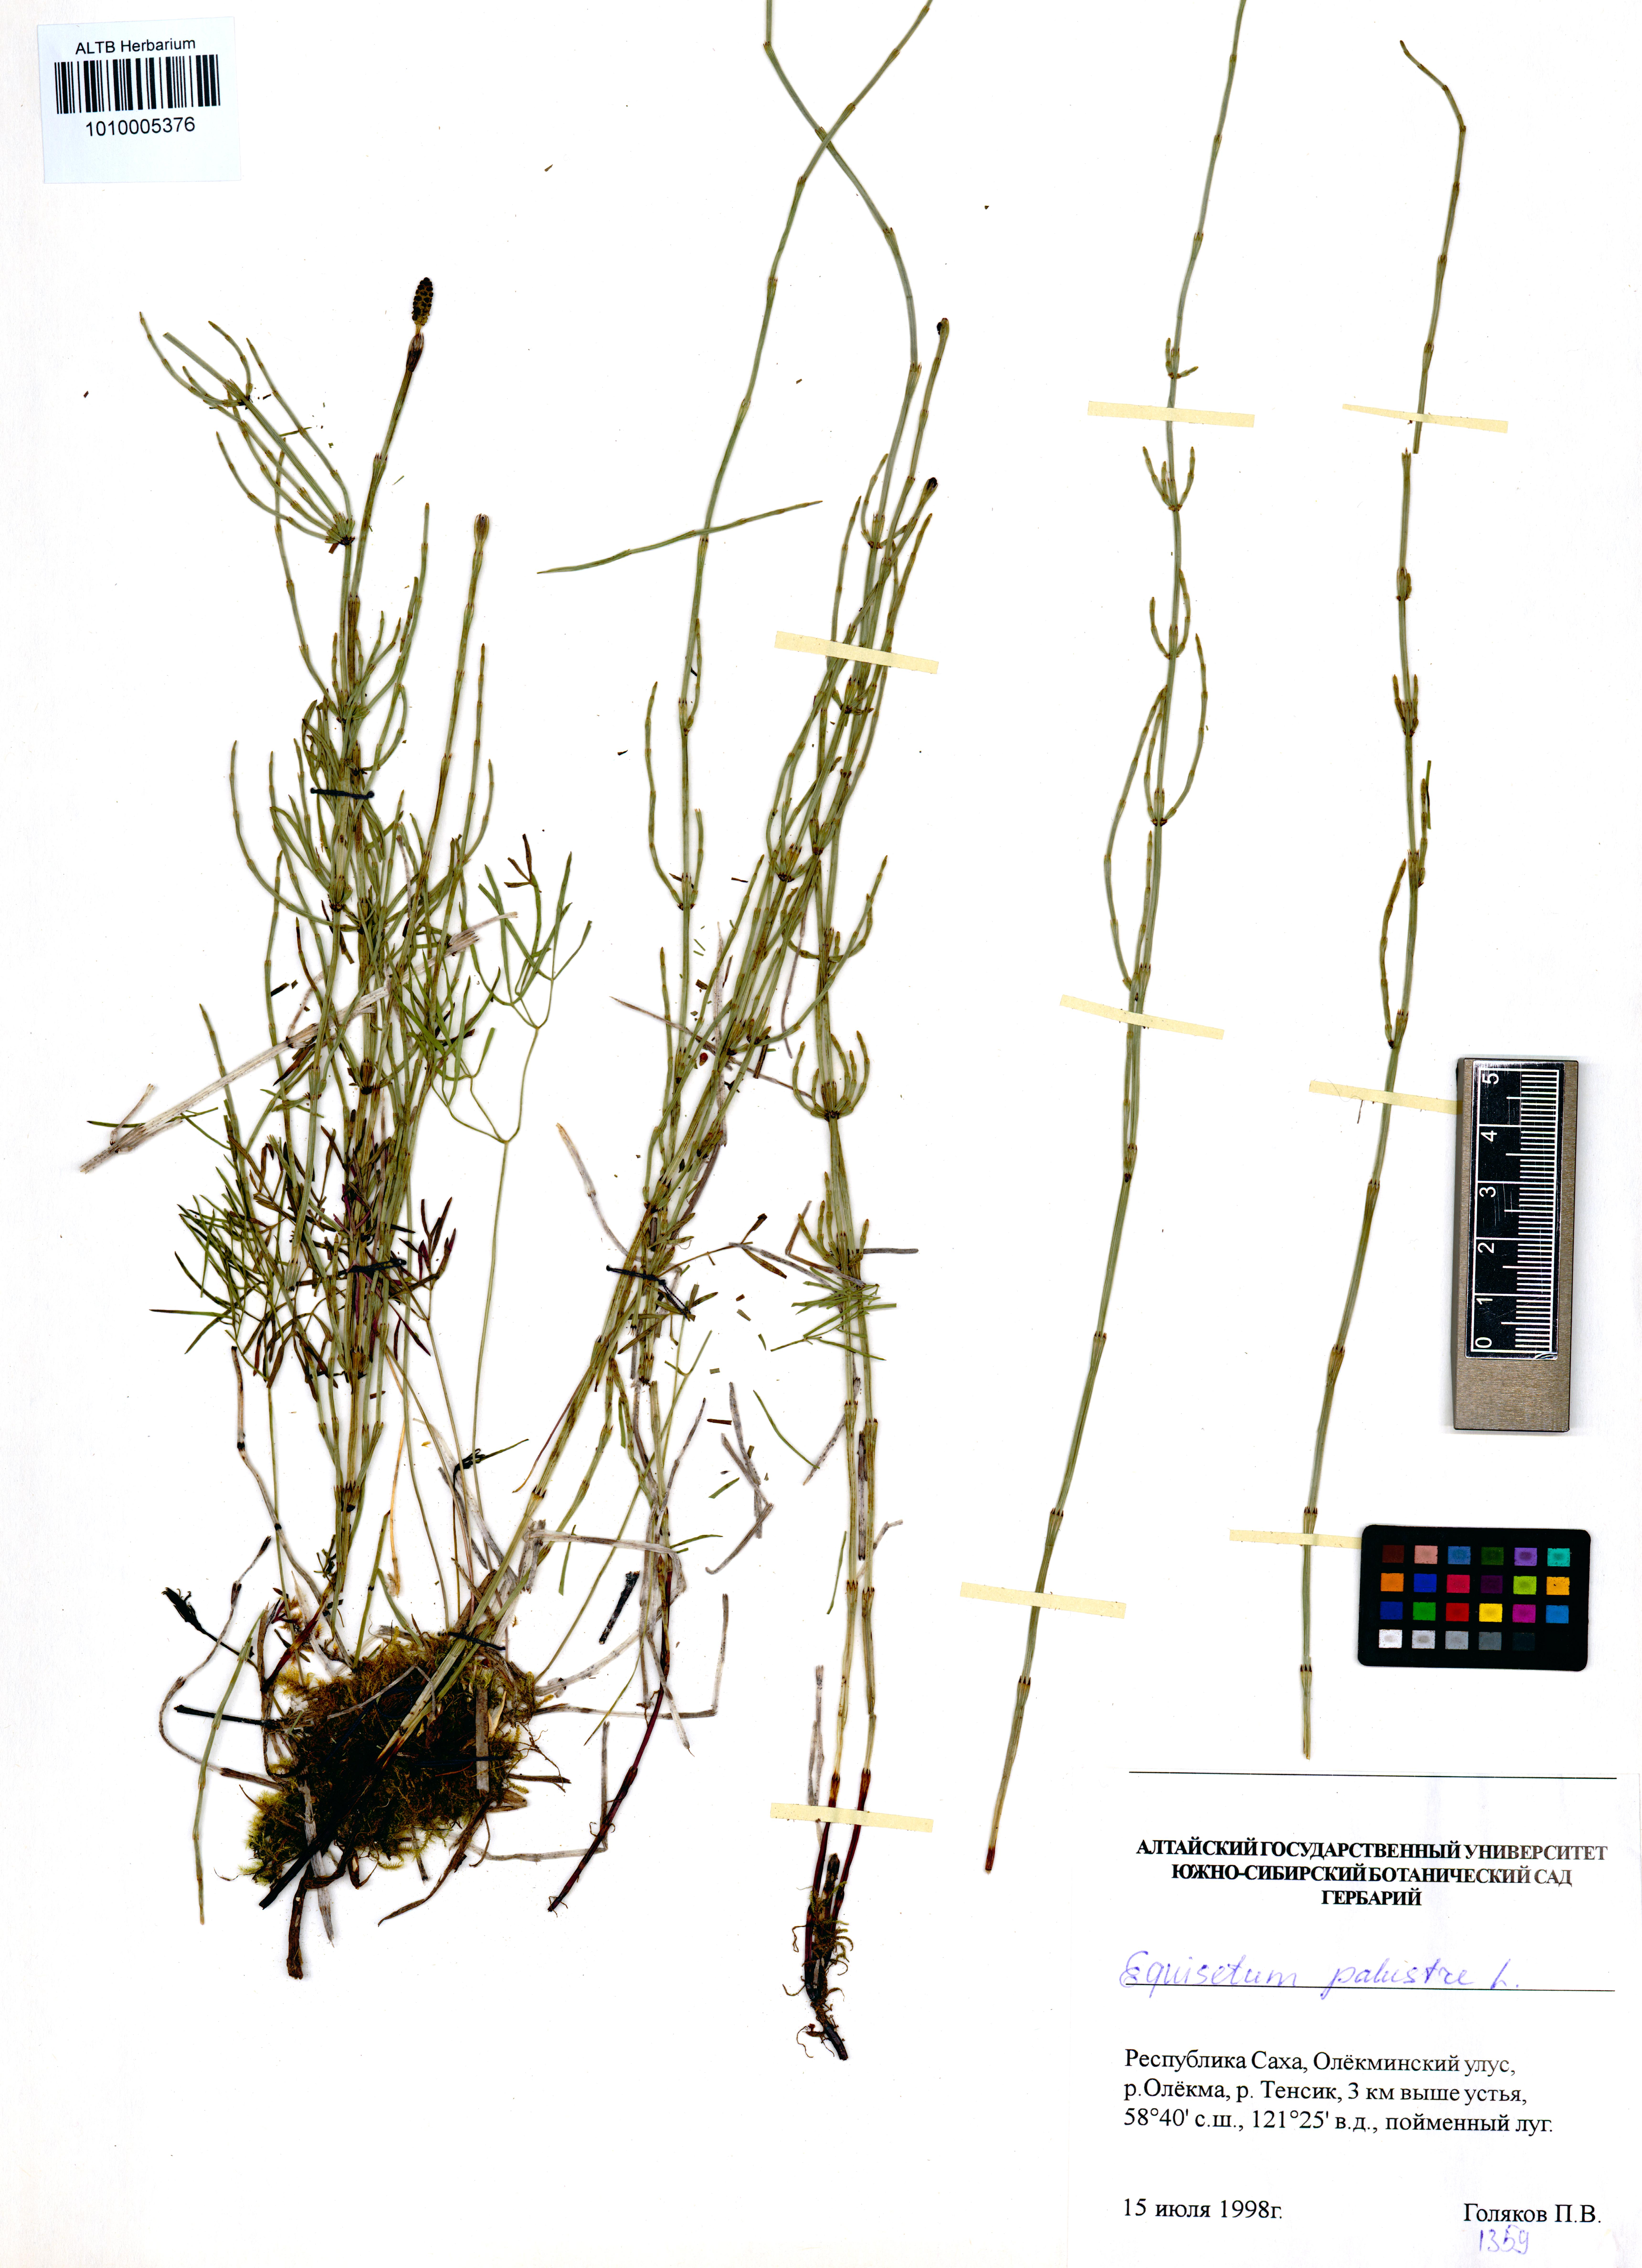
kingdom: Plantae
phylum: Tracheophyta
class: Polypodiopsida
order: Equisetales
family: Equisetaceae
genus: Equisetum
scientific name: Equisetum palustre
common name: Marsh horsetail
